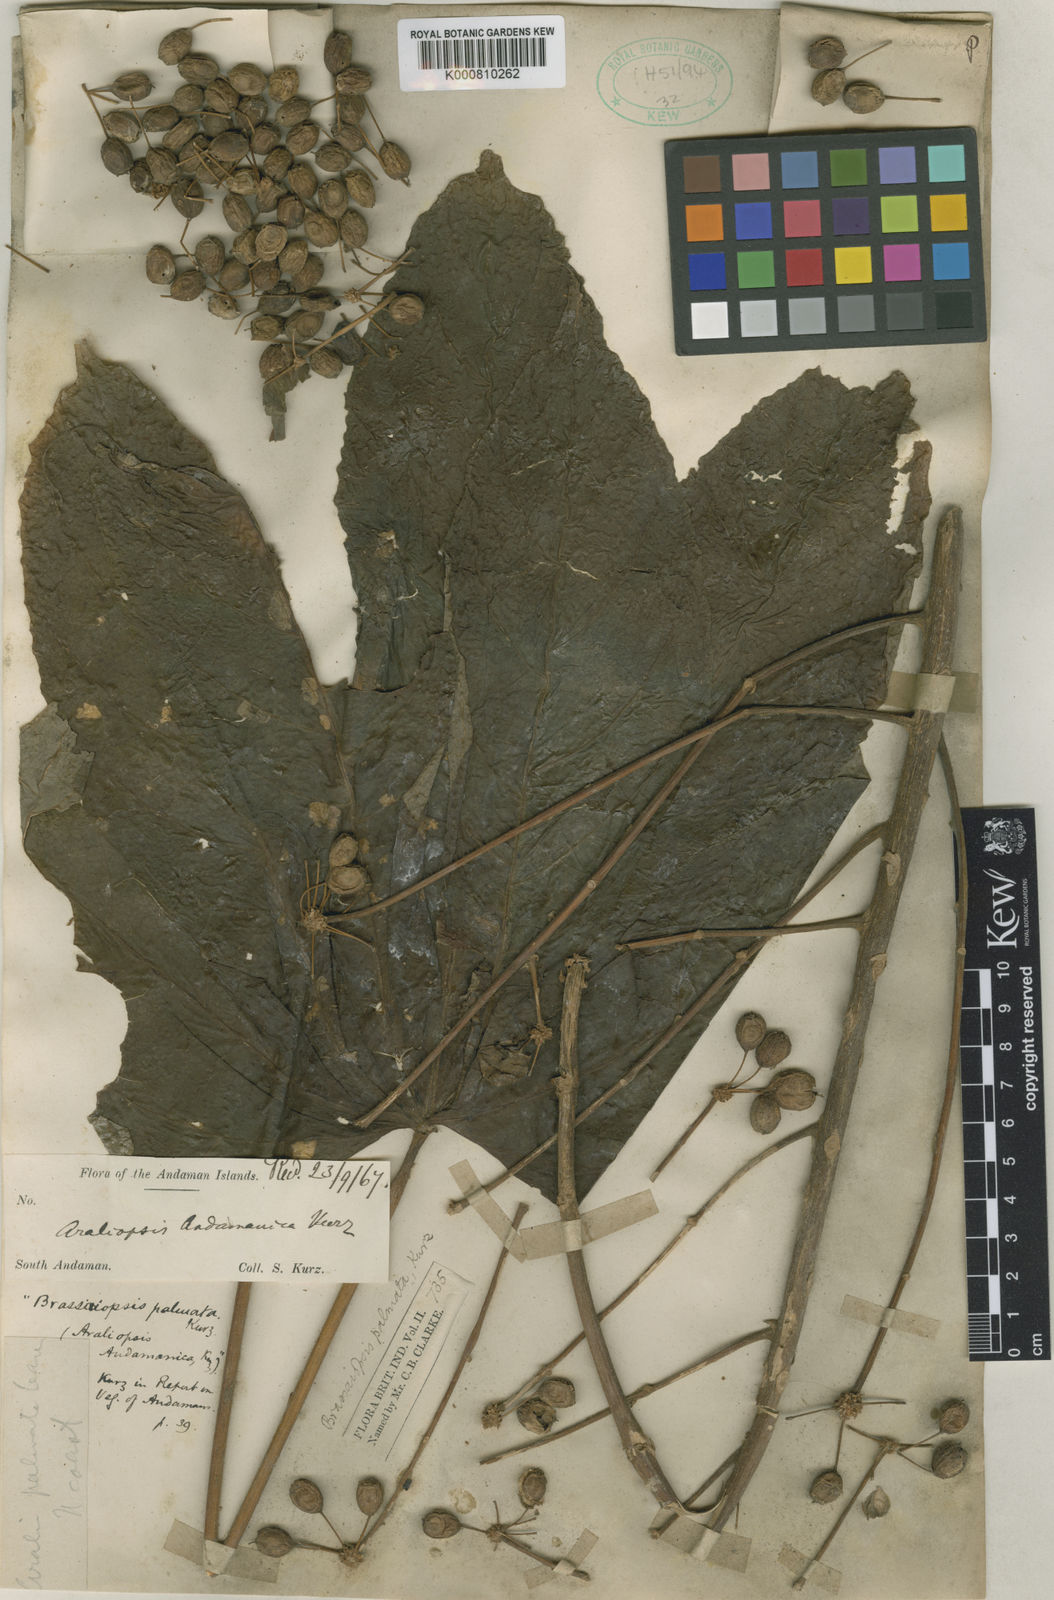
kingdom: Plantae
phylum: Tracheophyta
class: Magnoliopsida
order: Apiales
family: Araliaceae
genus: Brassaiopsis
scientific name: Brassaiopsis hainla
